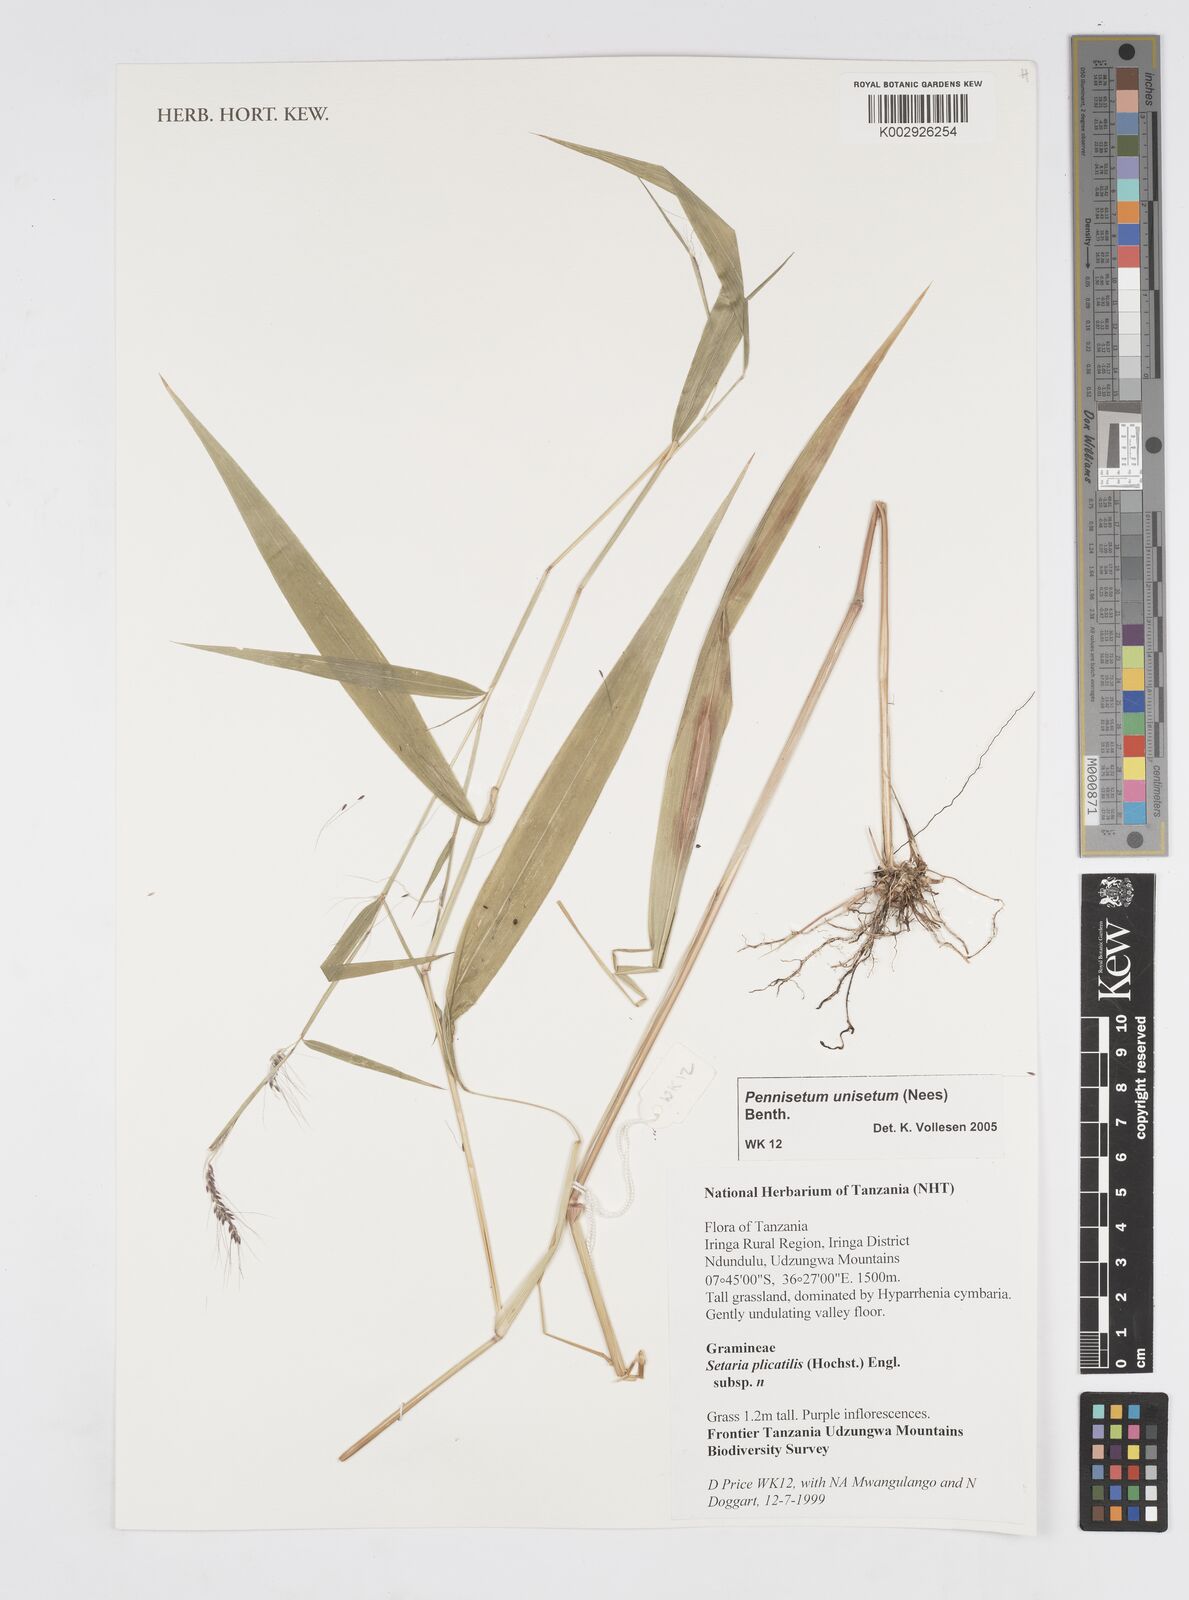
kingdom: Plantae
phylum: Tracheophyta
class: Liliopsida
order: Poales
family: Poaceae
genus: Cenchrus
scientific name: Cenchrus unisetus
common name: Natal grass
